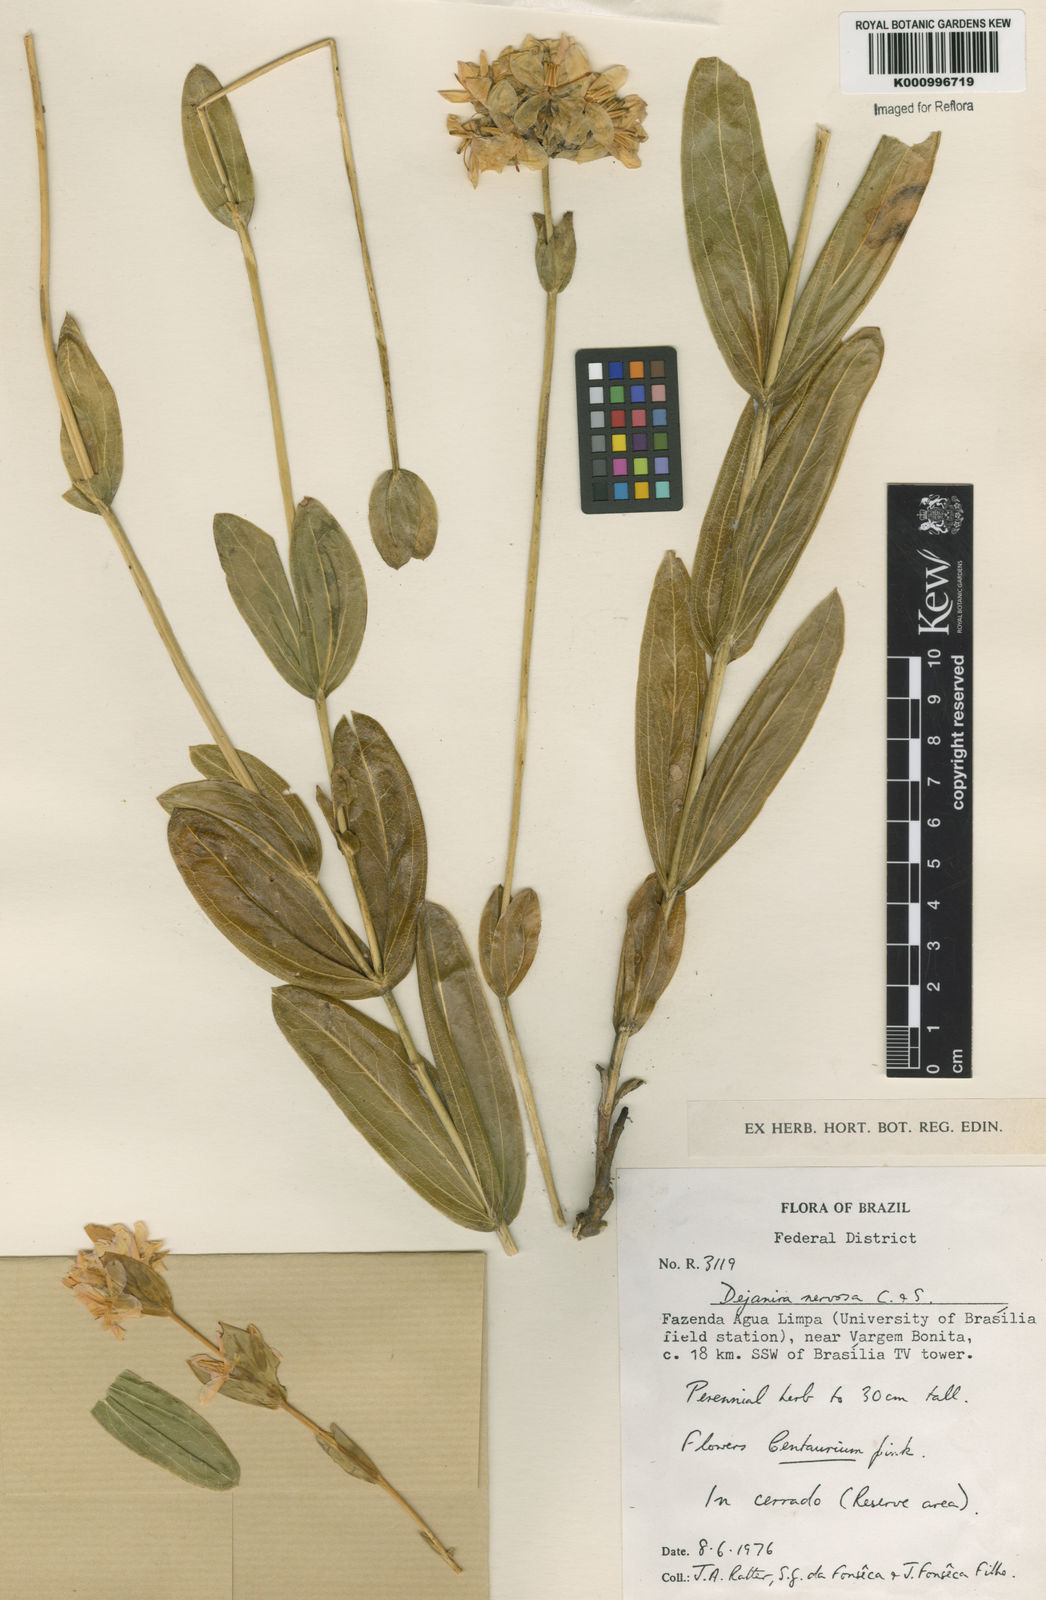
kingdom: Plantae
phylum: Tracheophyta
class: Magnoliopsida
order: Gentianales
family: Gentianaceae
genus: Deianira
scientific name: Deianira nervosa
